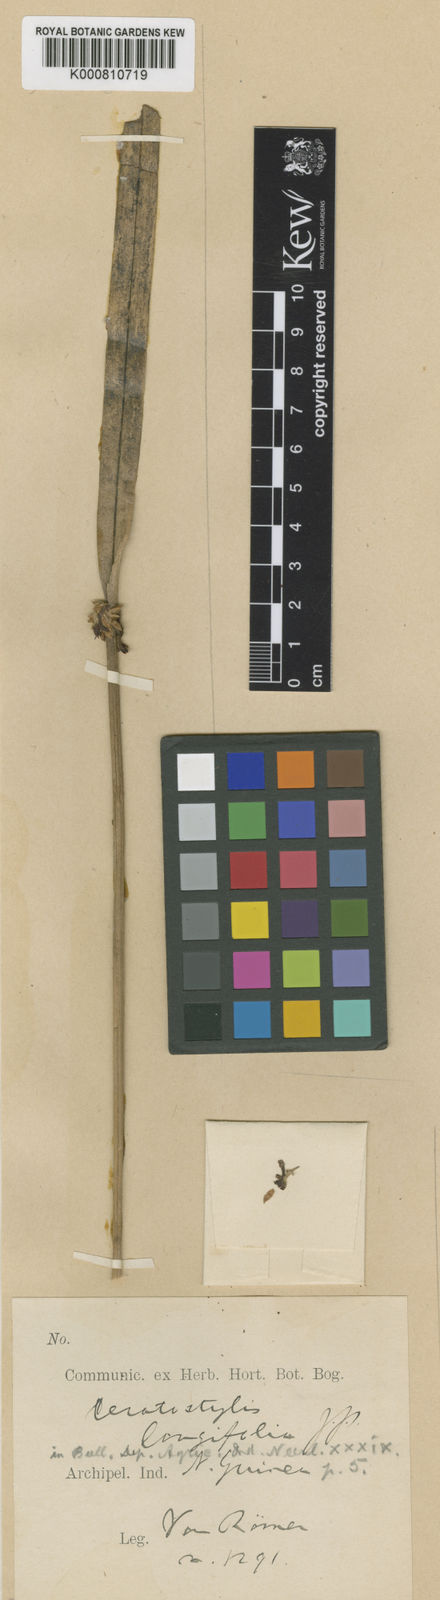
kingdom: Plantae
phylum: Tracheophyta
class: Liliopsida
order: Asparagales
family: Orchidaceae
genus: Ceratostylis
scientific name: Ceratostylis longifolia
